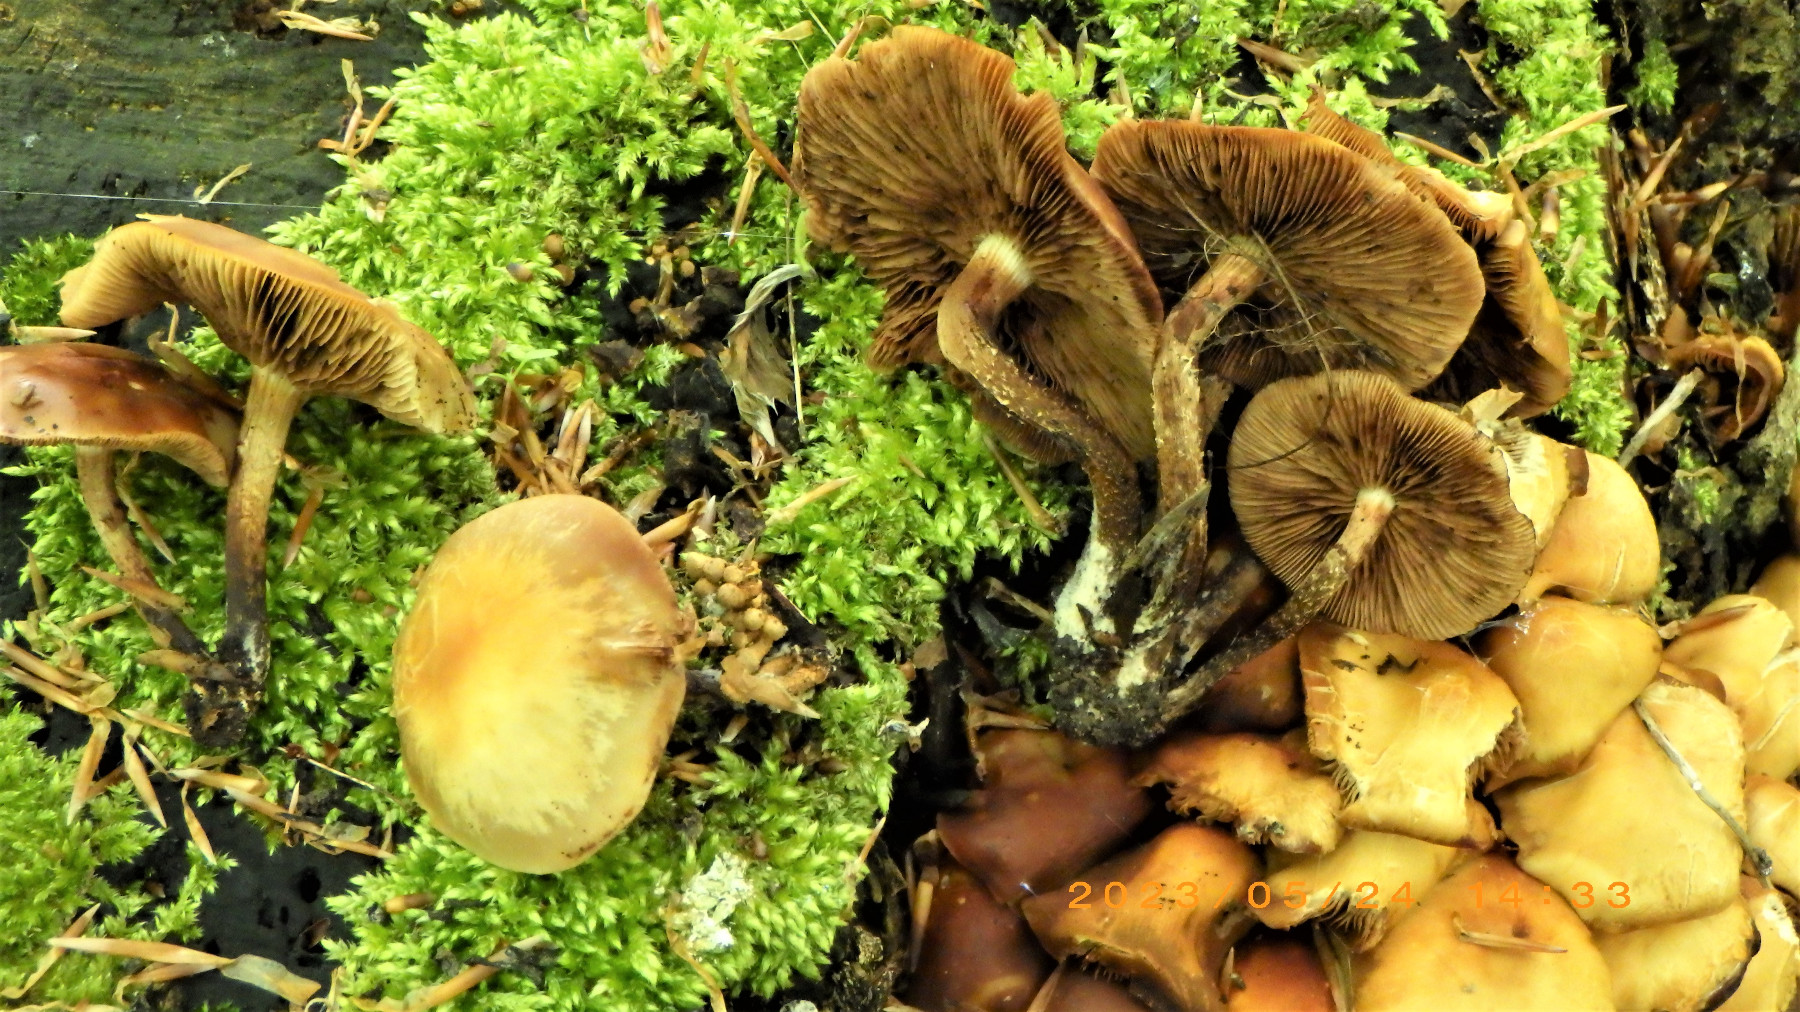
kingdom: Fungi
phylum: Basidiomycota
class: Agaricomycetes
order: Agaricales
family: Strophariaceae
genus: Kuehneromyces
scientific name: Kuehneromyces mutabilis
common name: foranderlig skælhat
